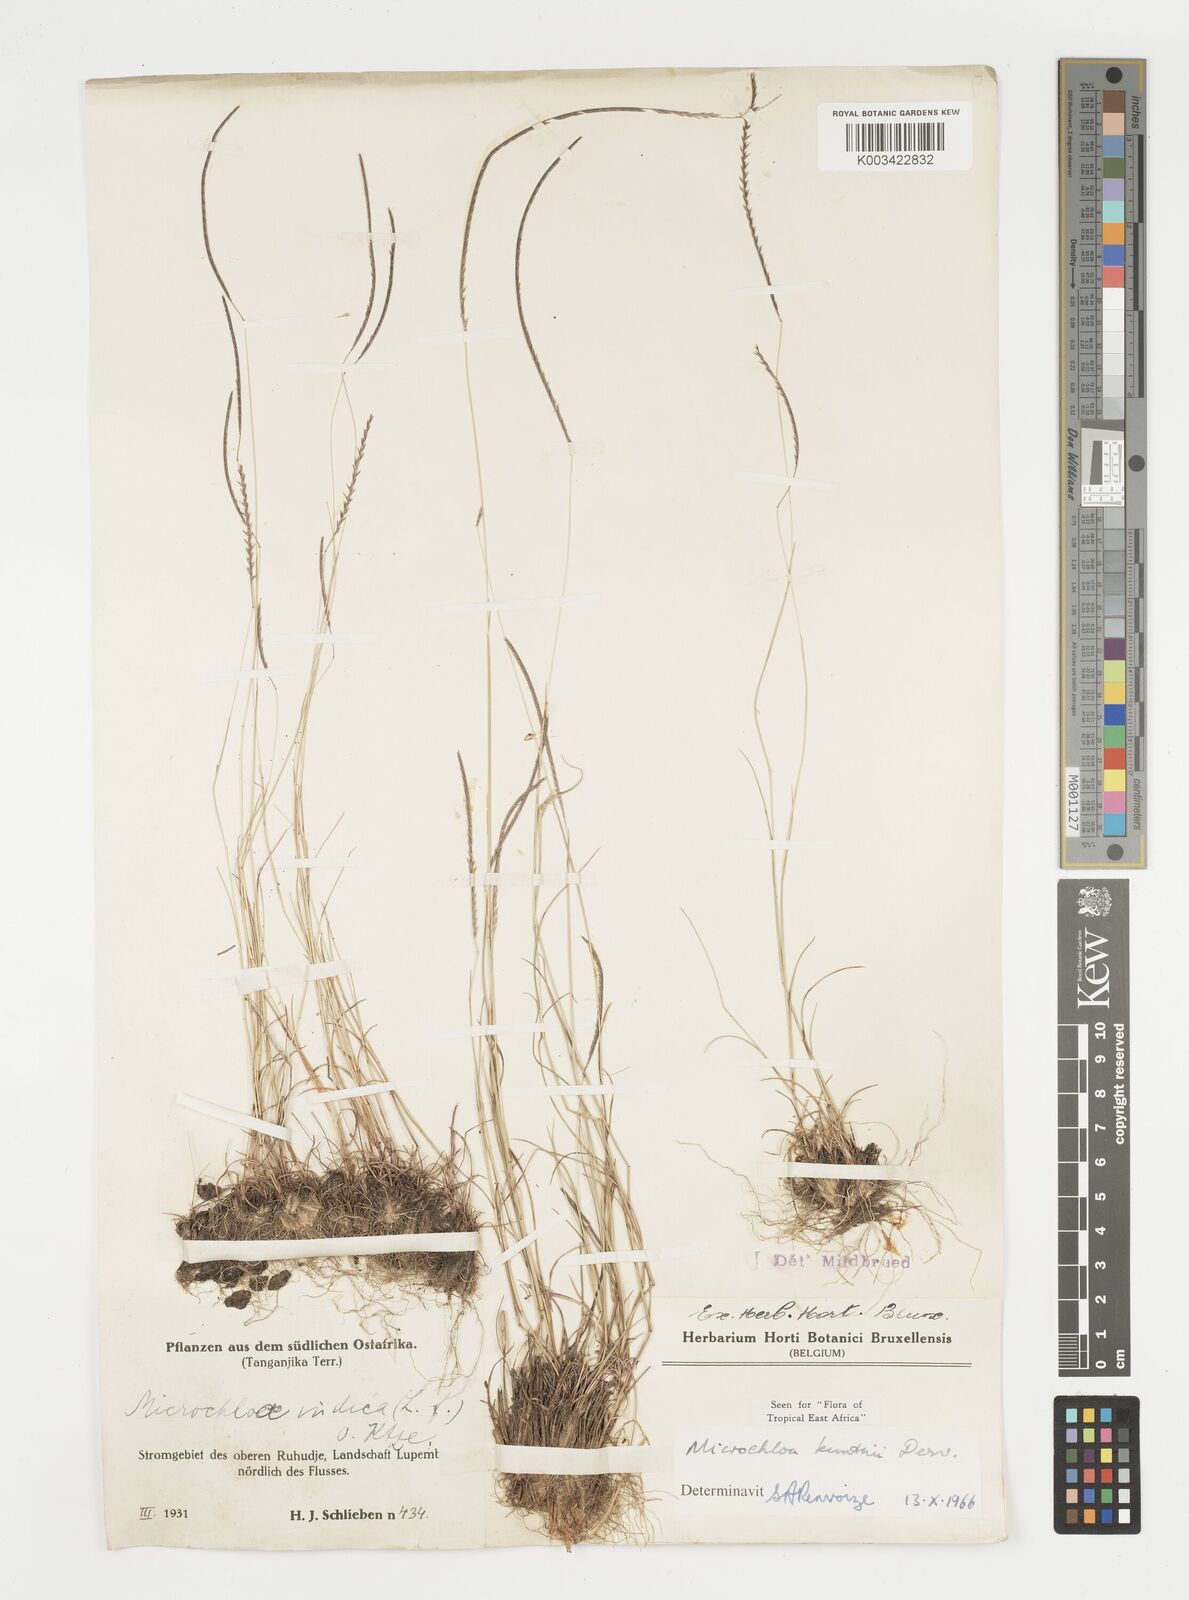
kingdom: Plantae
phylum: Tracheophyta
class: Liliopsida
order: Poales
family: Poaceae
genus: Microchloa
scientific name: Microchloa kunthii
